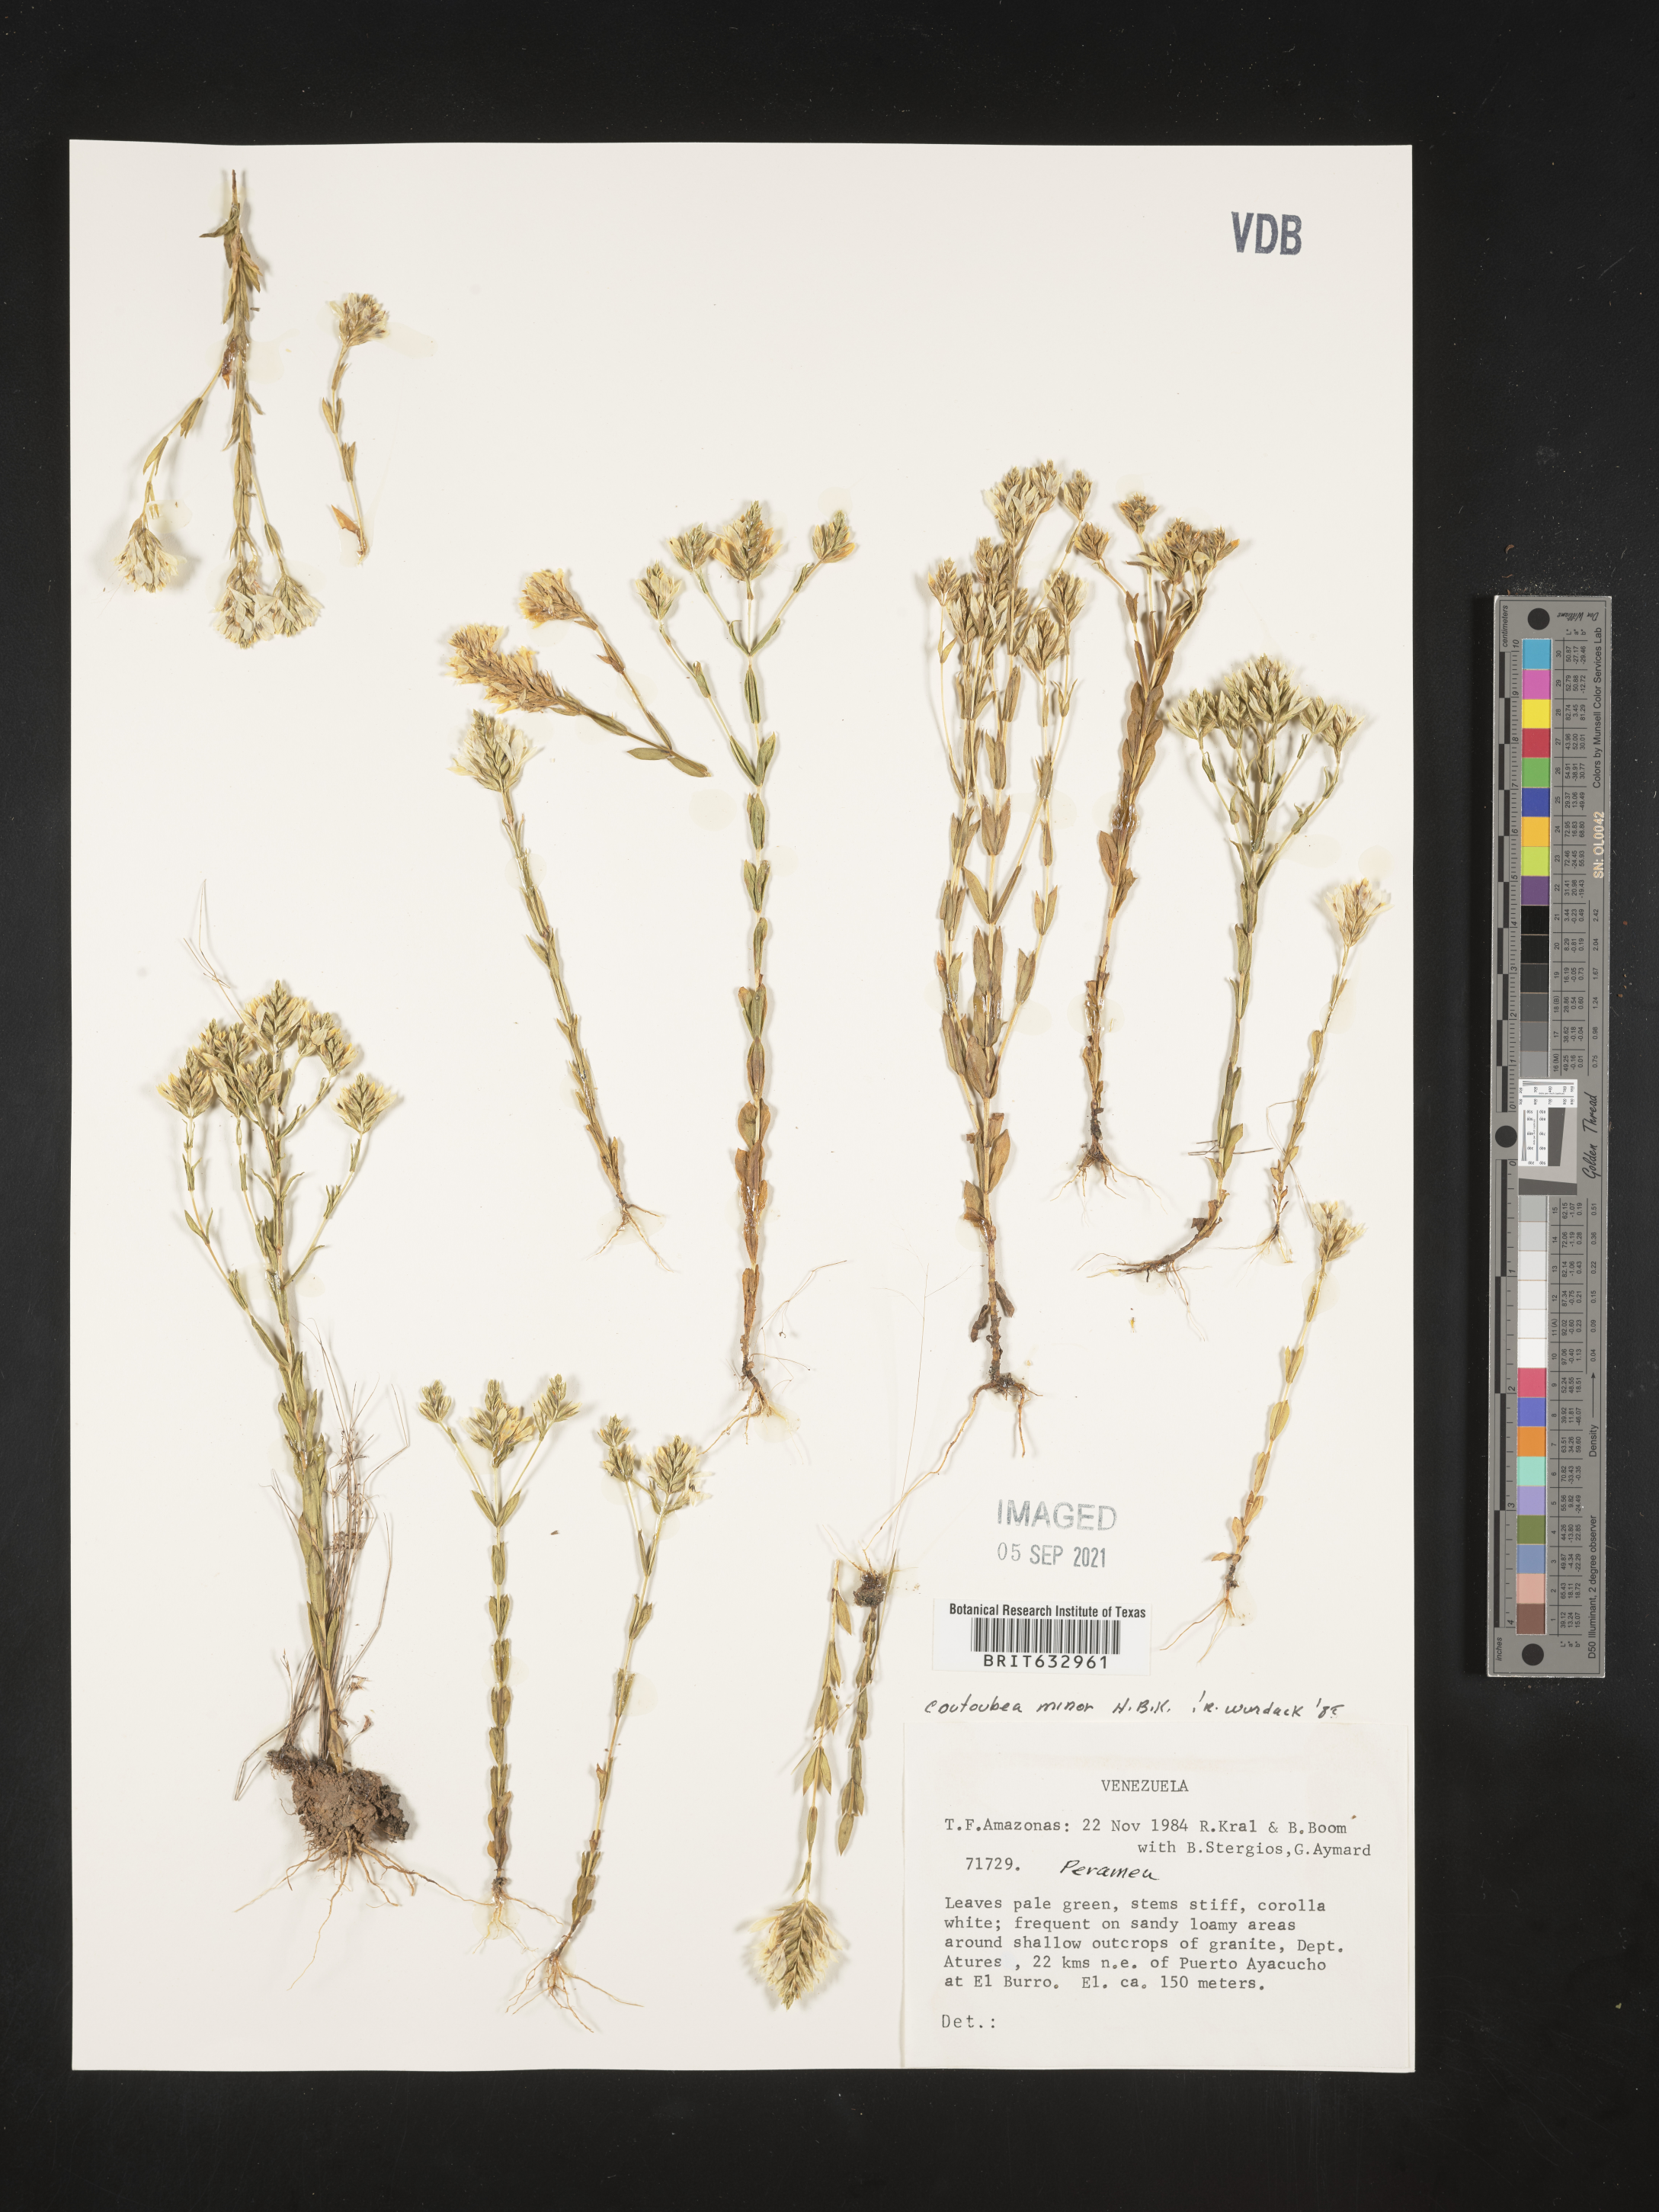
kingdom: Plantae
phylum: Tracheophyta
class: Magnoliopsida
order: Gentianales
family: Gentianaceae
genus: Coutoubea
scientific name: Coutoubea
